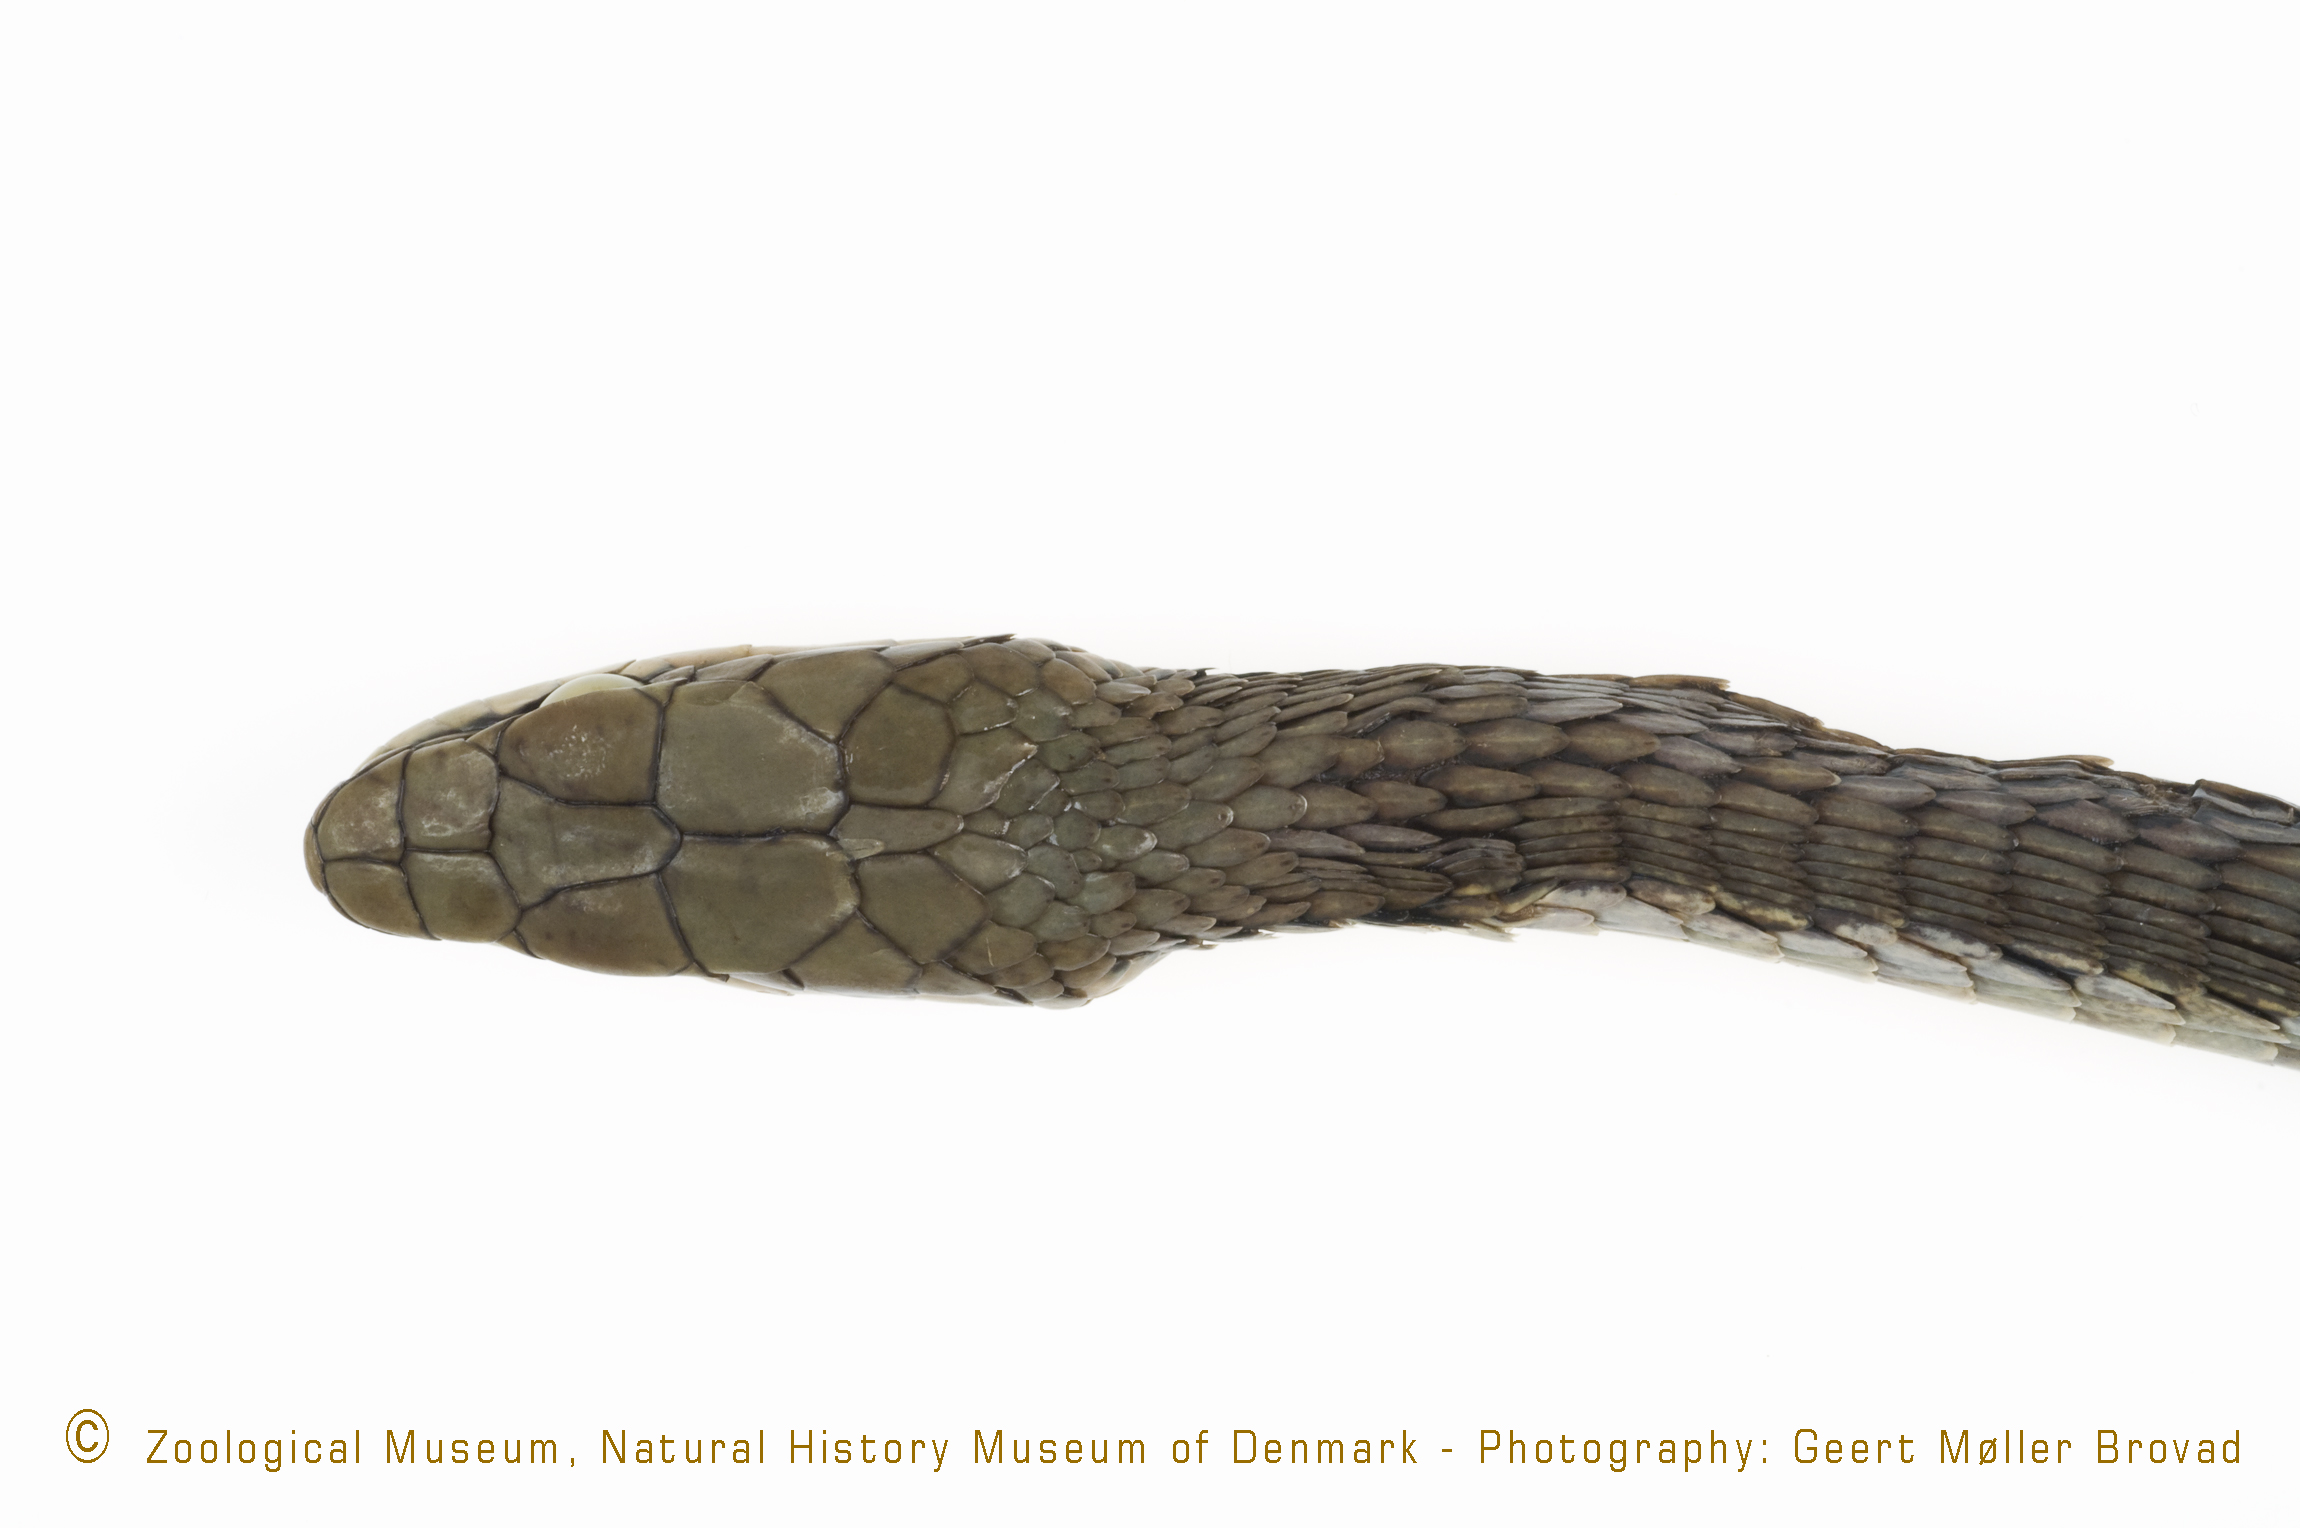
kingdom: Animalia
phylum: Chordata
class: Squamata
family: Colubridae
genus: Thelotornis
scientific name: Thelotornis capensis
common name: Savanna vine snake
